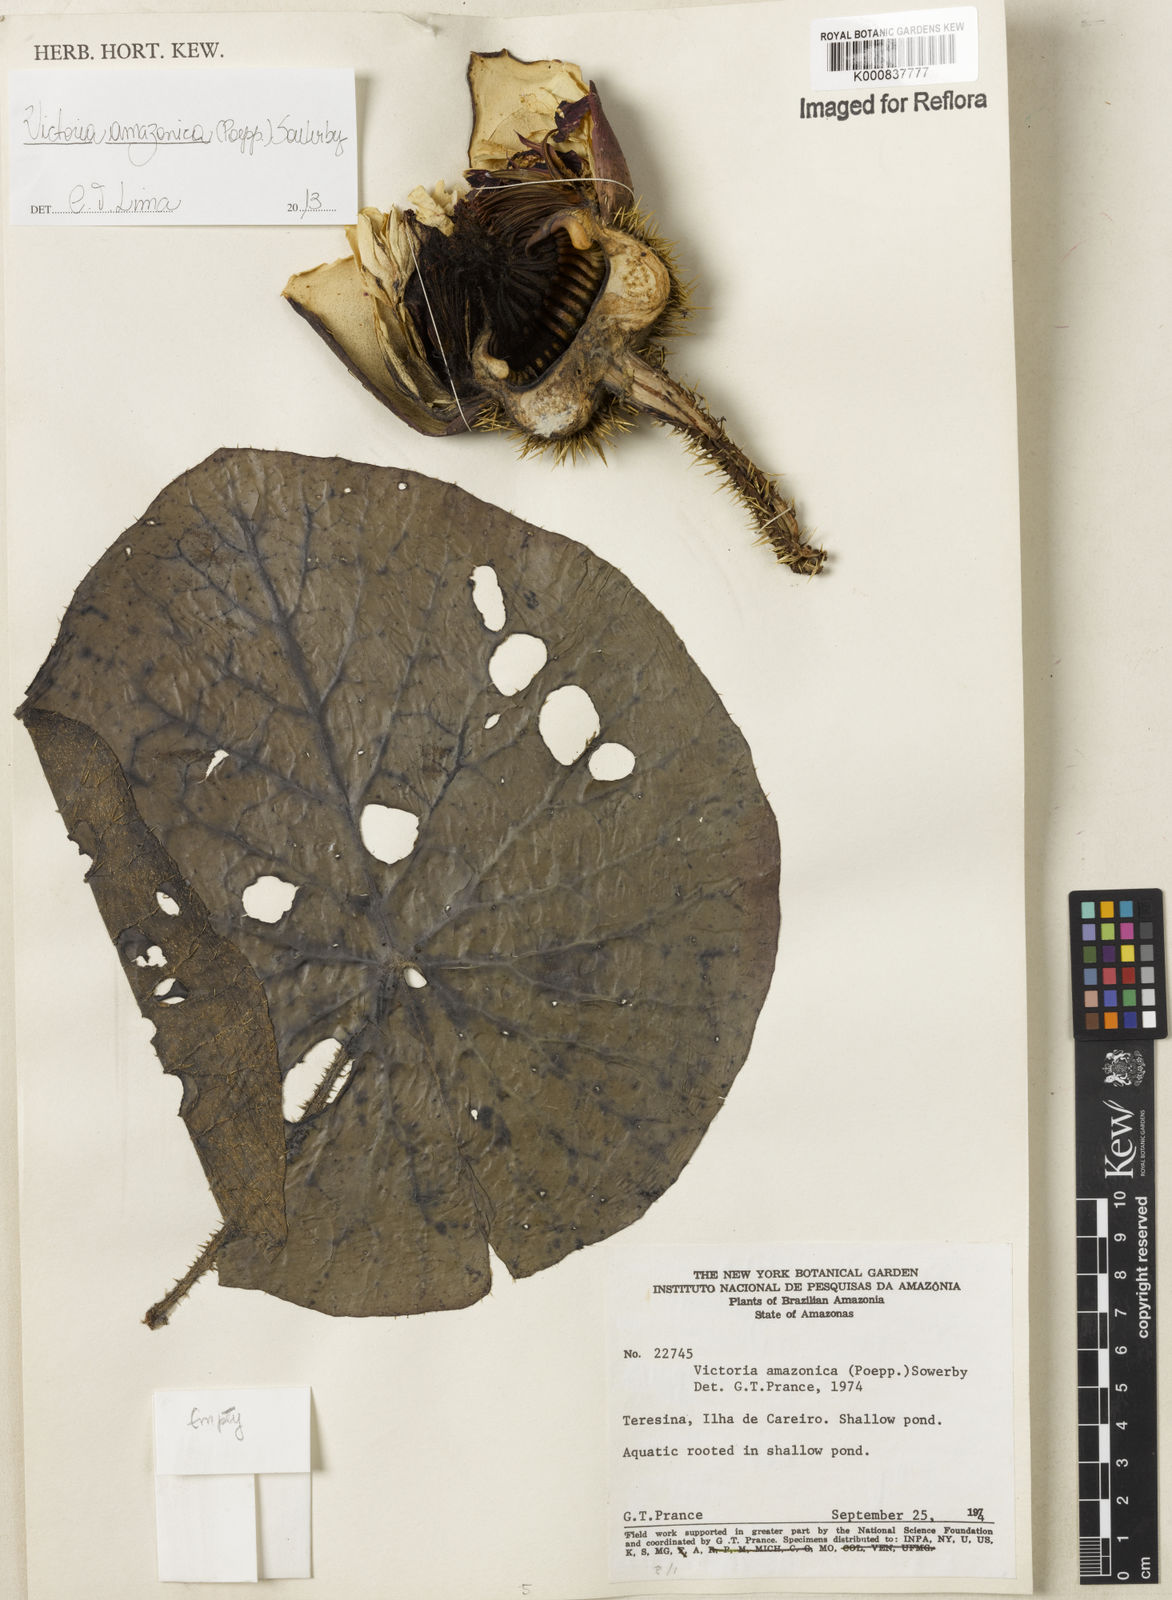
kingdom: Plantae
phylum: Tracheophyta
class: Magnoliopsida
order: Nymphaeales
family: Nymphaeaceae
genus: Victoria
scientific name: Victoria
